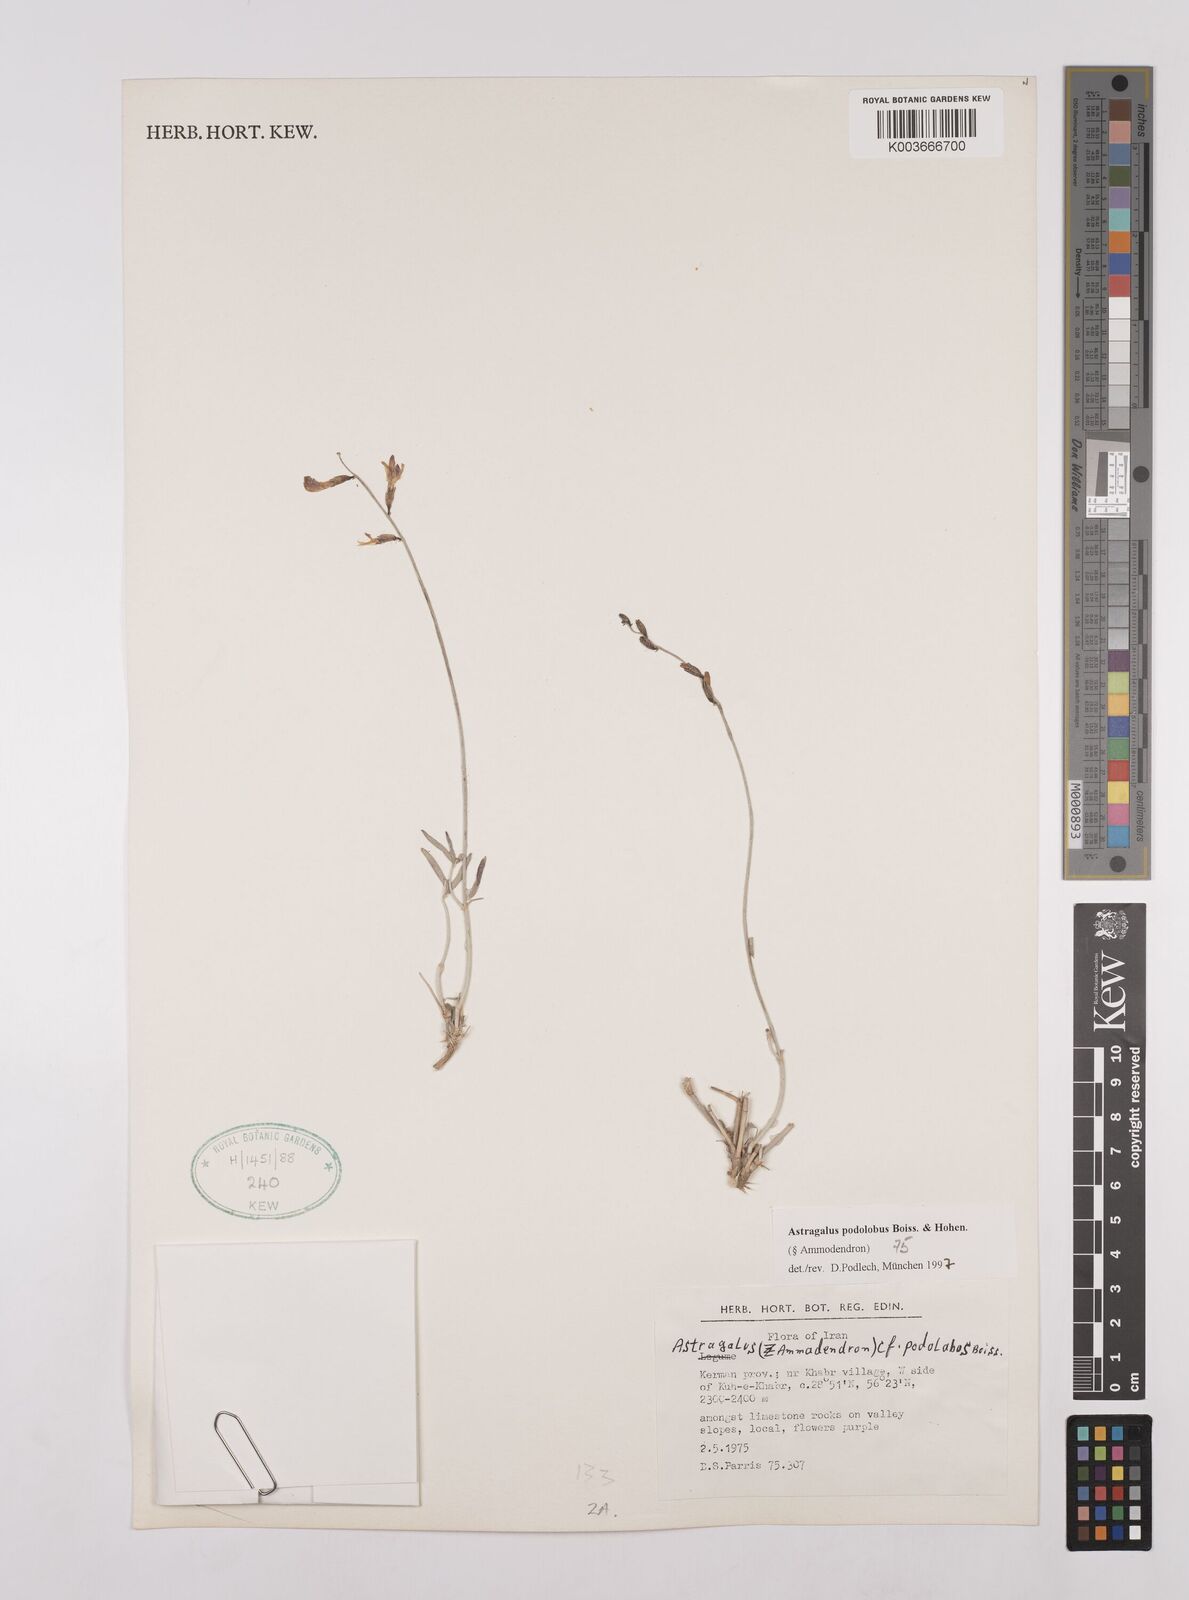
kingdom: Plantae
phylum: Tracheophyta
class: Magnoliopsida
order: Fabales
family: Fabaceae
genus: Astragalus
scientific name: Astragalus podolobus
